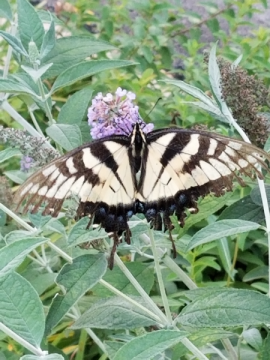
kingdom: Animalia
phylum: Arthropoda
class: Insecta
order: Lepidoptera
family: Papilionidae
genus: Pterourus
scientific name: Pterourus rutulus
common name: Western Tiger Swallowtail
